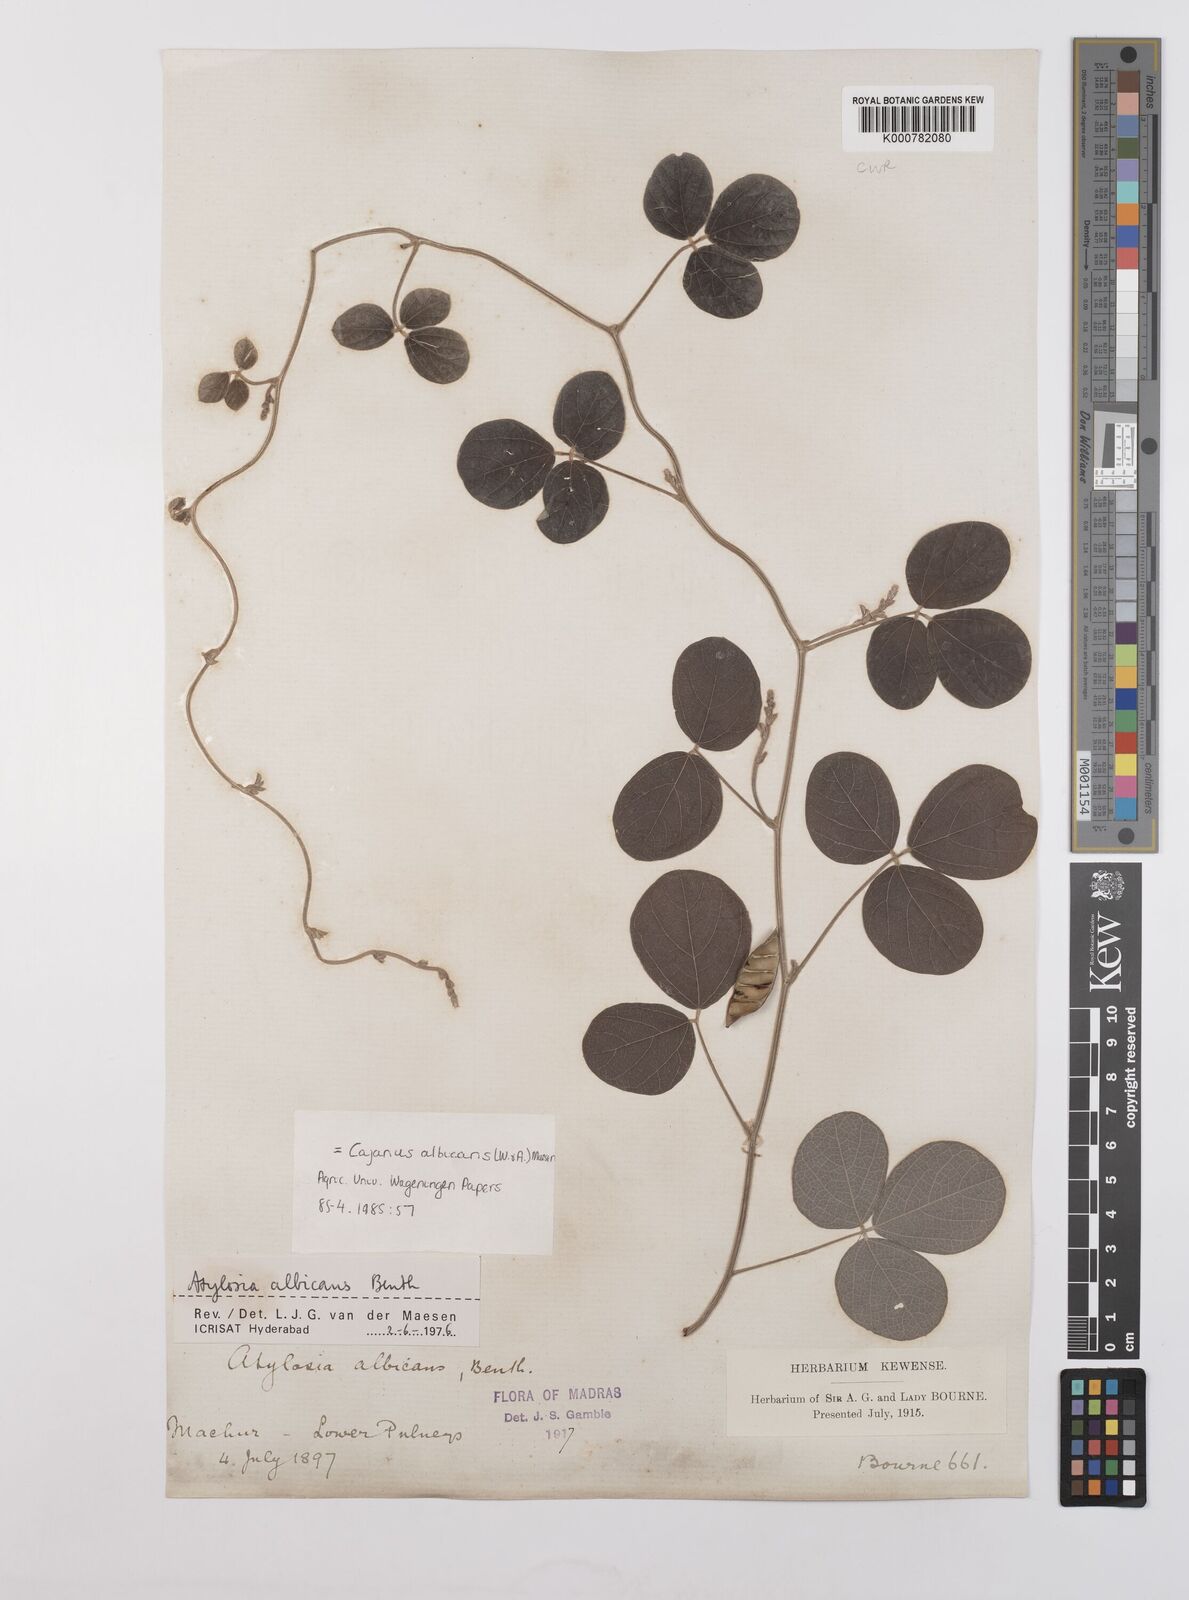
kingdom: Plantae
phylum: Tracheophyta
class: Magnoliopsida
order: Fabales
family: Fabaceae
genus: Cajanus
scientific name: Cajanus albicans
